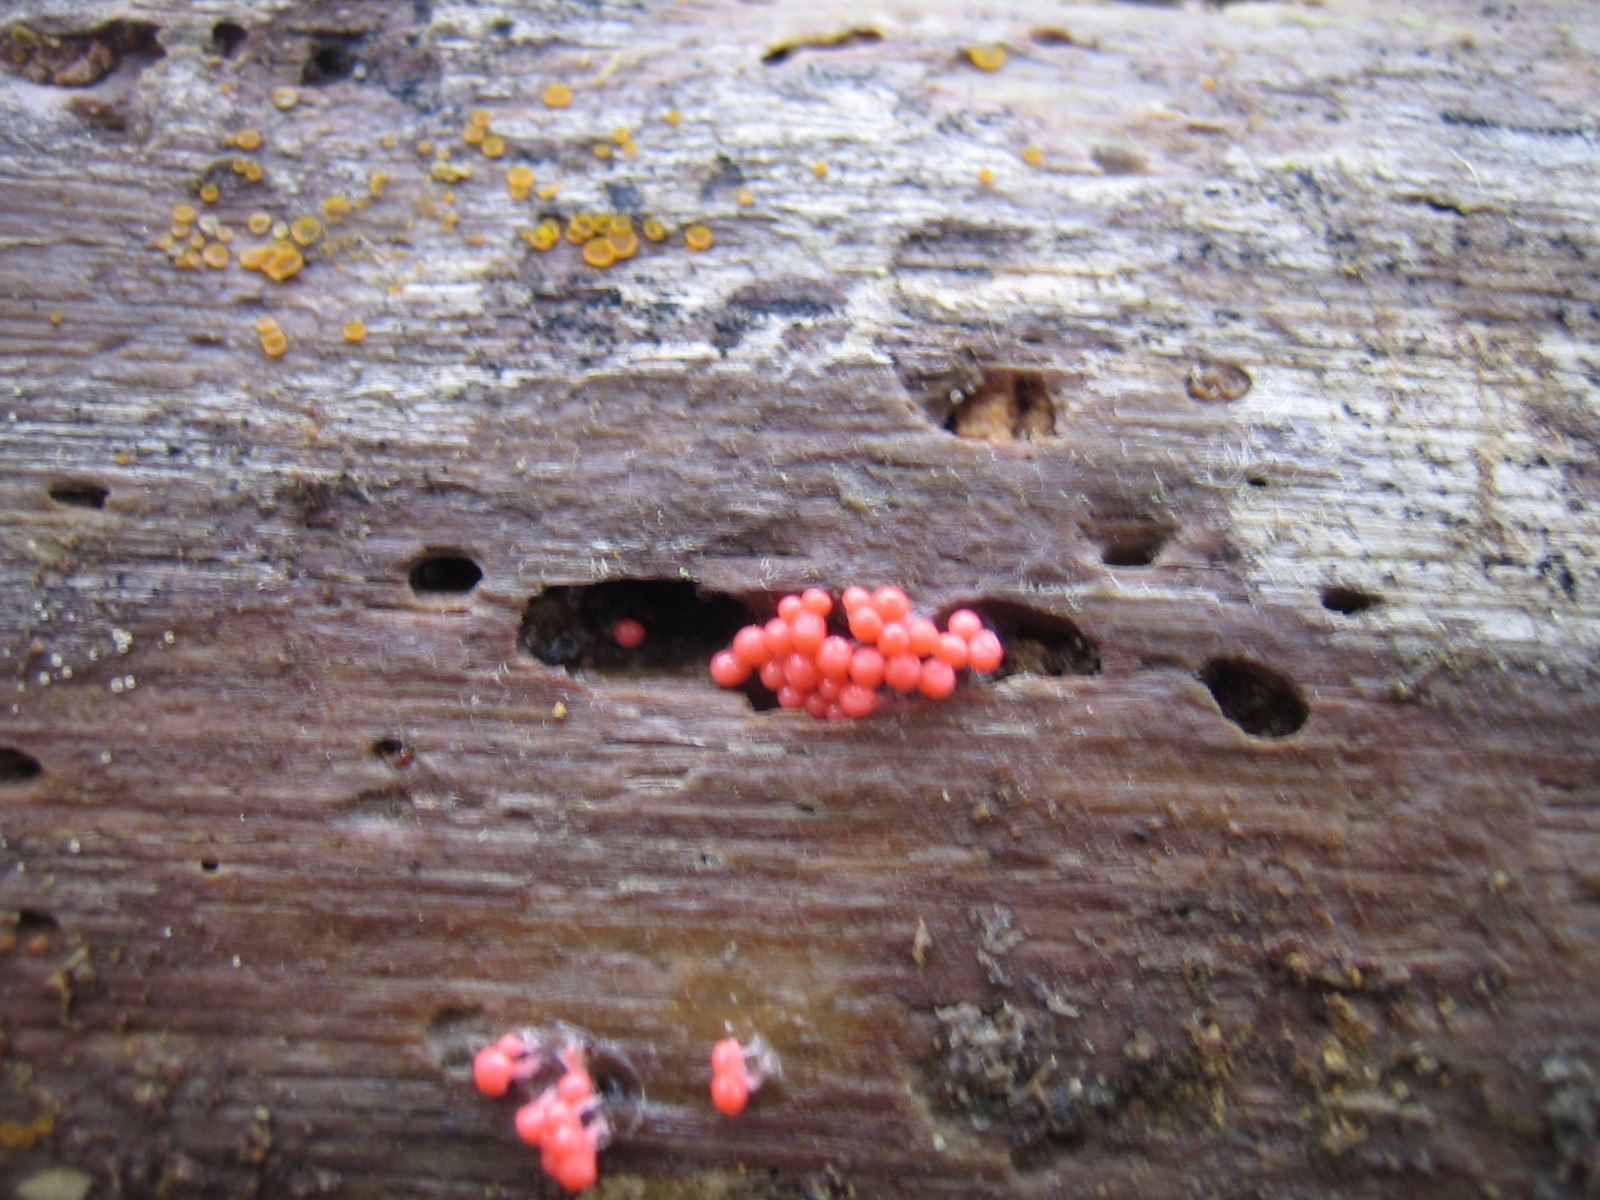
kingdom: Protozoa
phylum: Mycetozoa
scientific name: Mycetozoa
